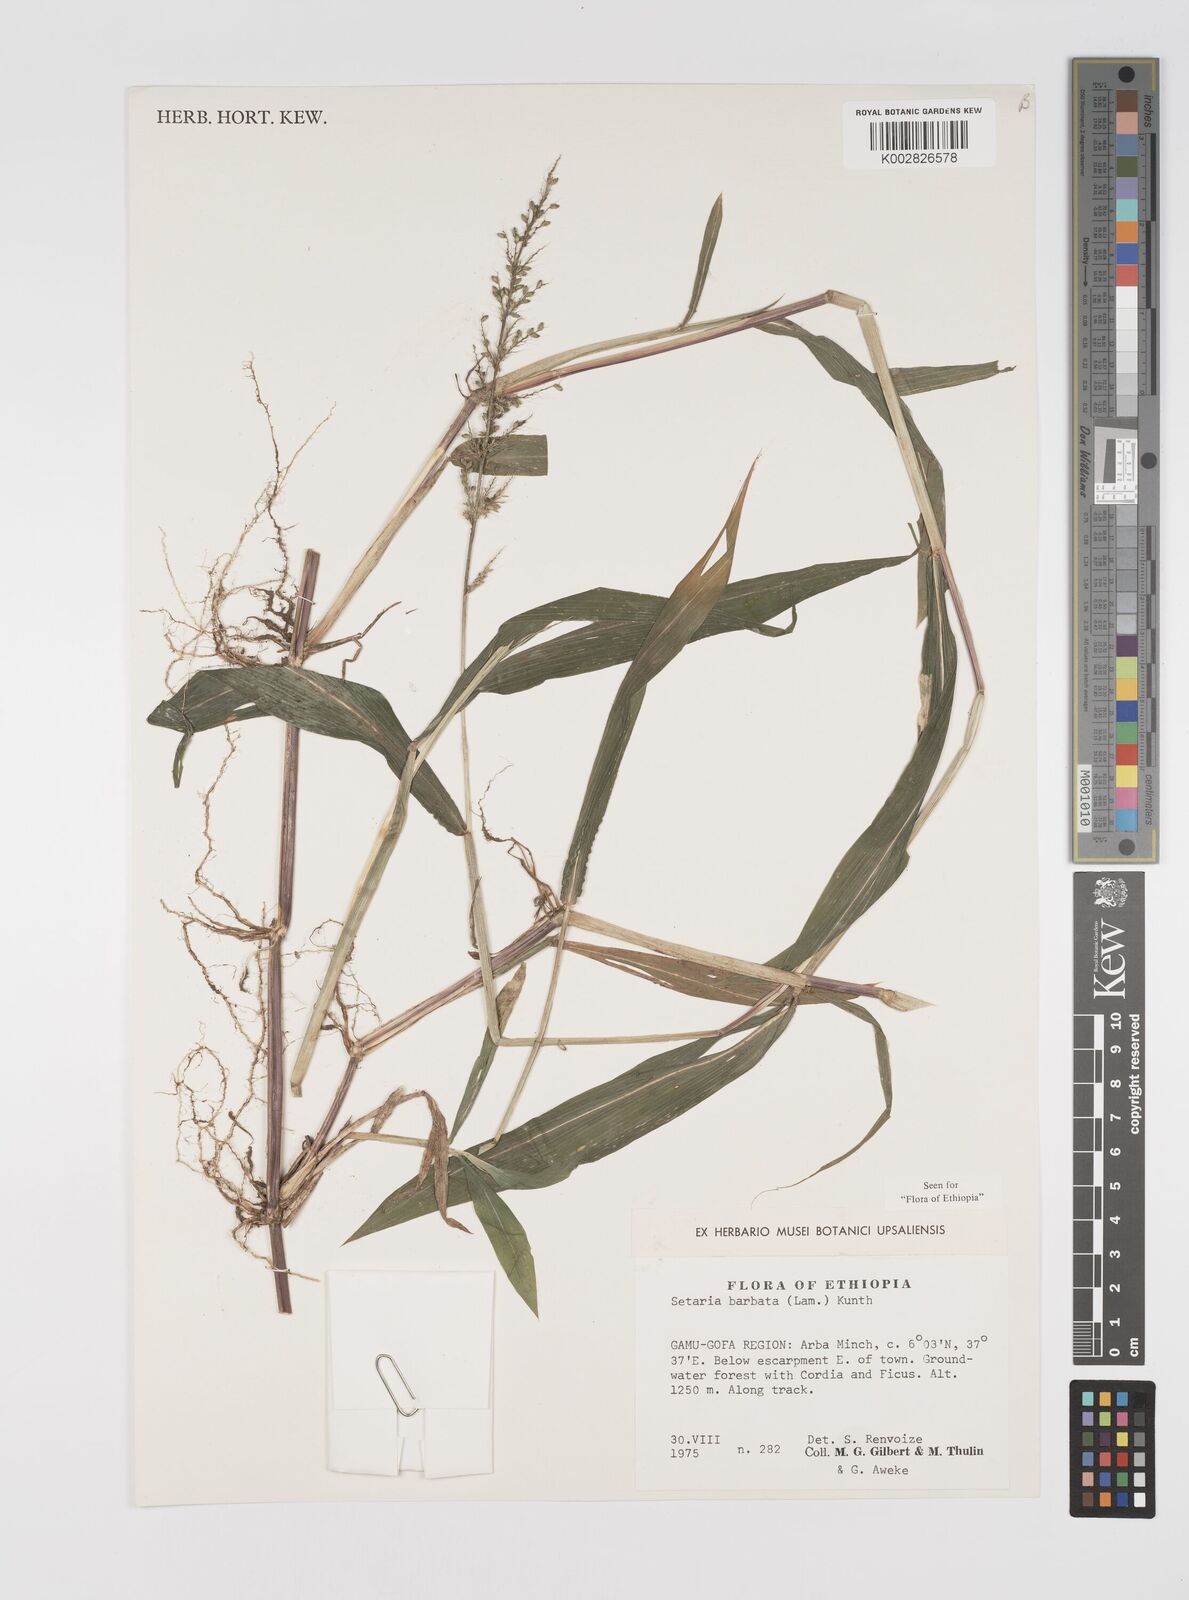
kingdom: Plantae
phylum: Tracheophyta
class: Liliopsida
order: Poales
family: Poaceae
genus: Setaria
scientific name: Setaria barbata
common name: East indian bristlegrass
